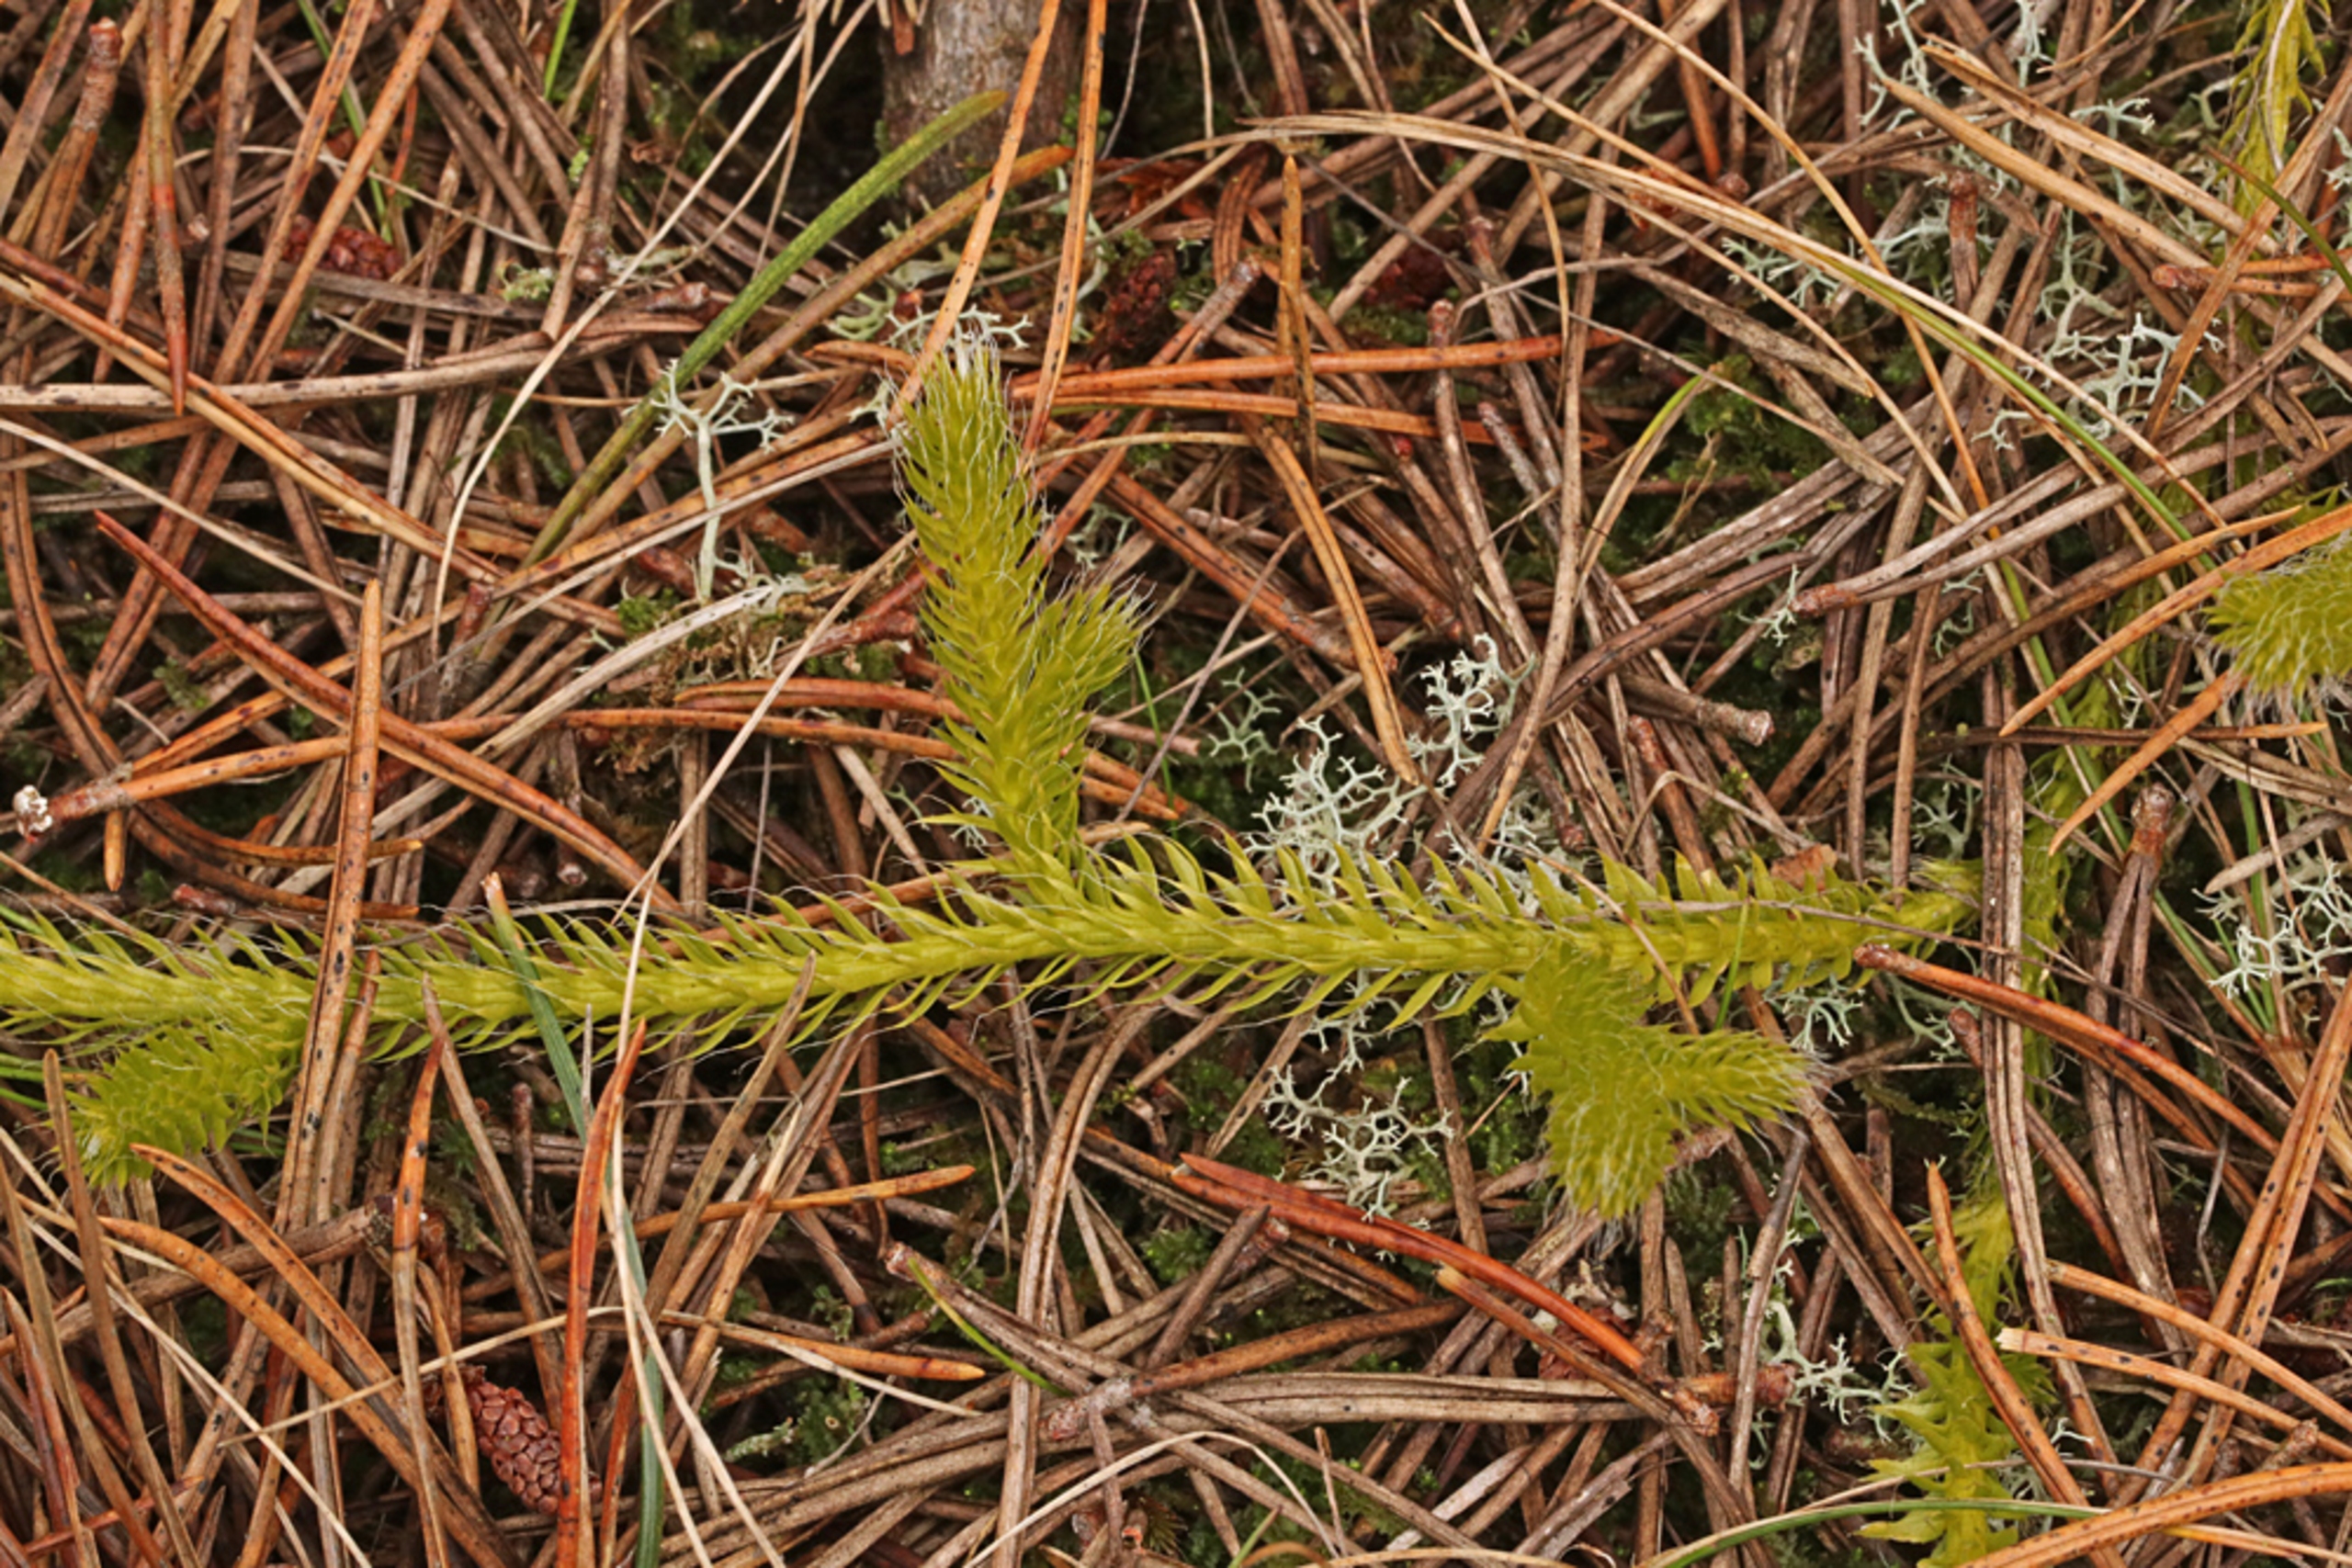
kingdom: Plantae
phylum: Tracheophyta
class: Lycopodiopsida
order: Lycopodiales
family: Lycopodiaceae
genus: Lycopodium
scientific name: Lycopodium clavatum
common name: Almindelig ulvefod
